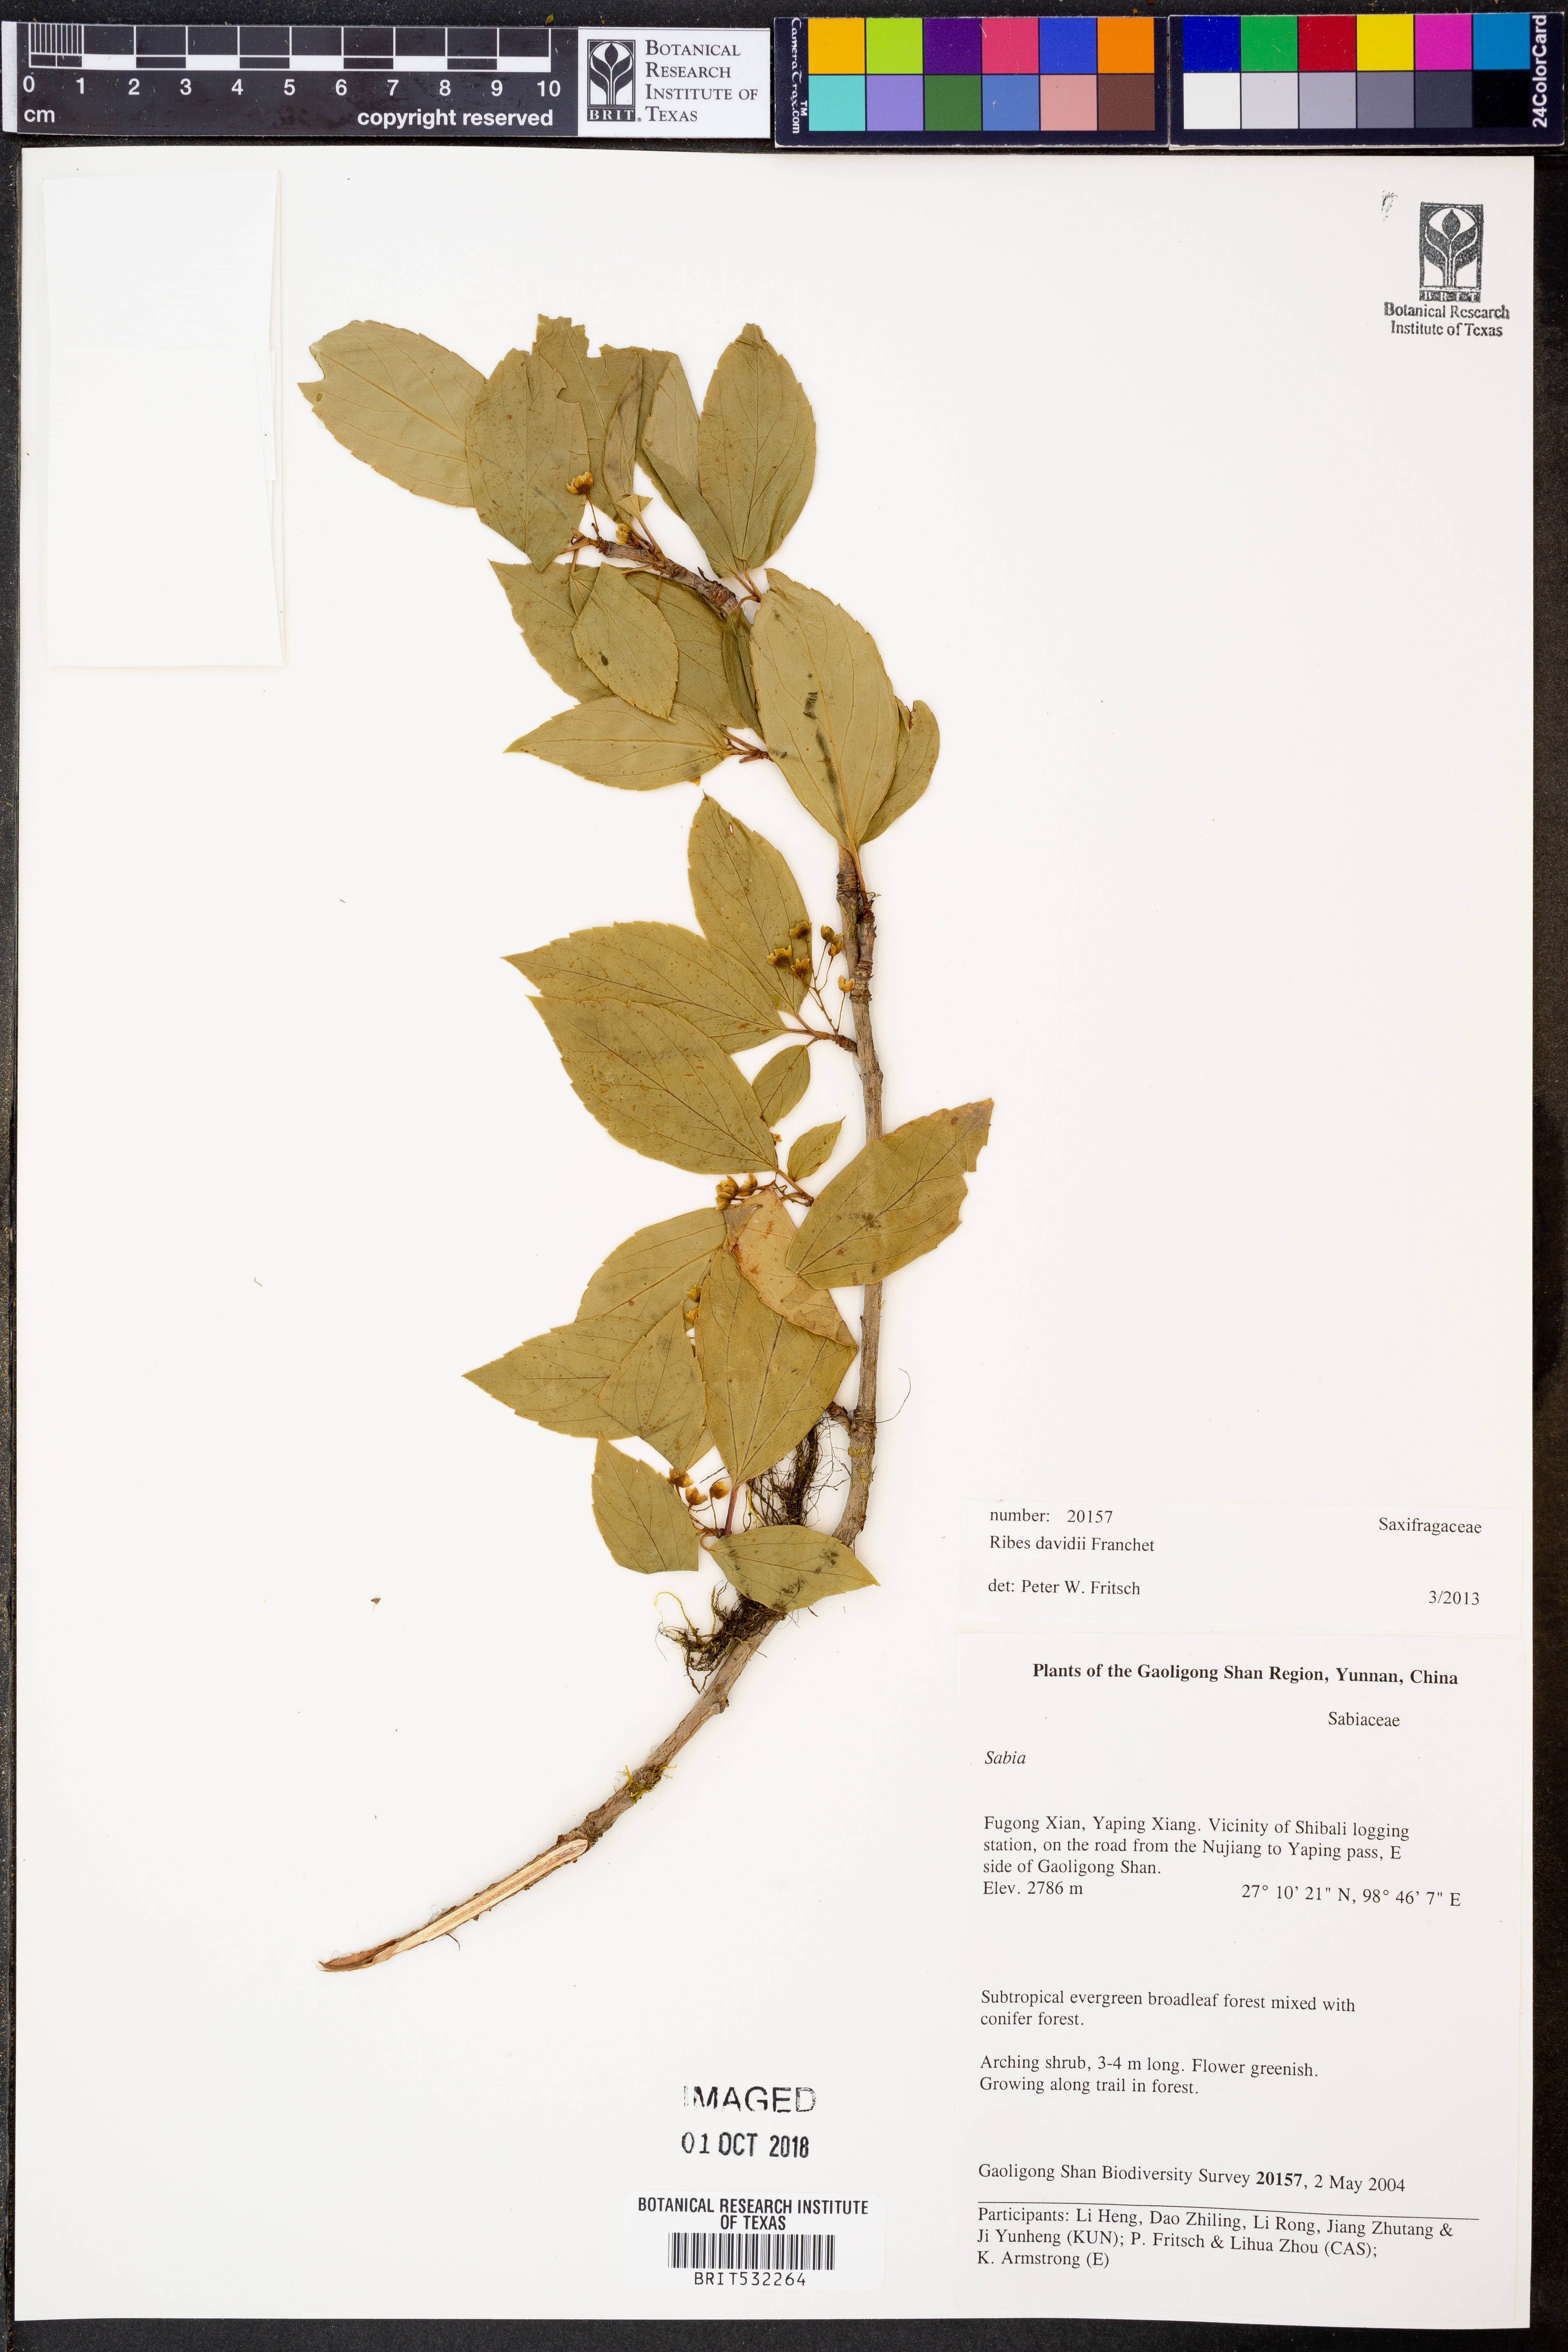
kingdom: Plantae
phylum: Tracheophyta
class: Magnoliopsida
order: Saxifragales
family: Grossulariaceae
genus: Ribes
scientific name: Ribes davidii
